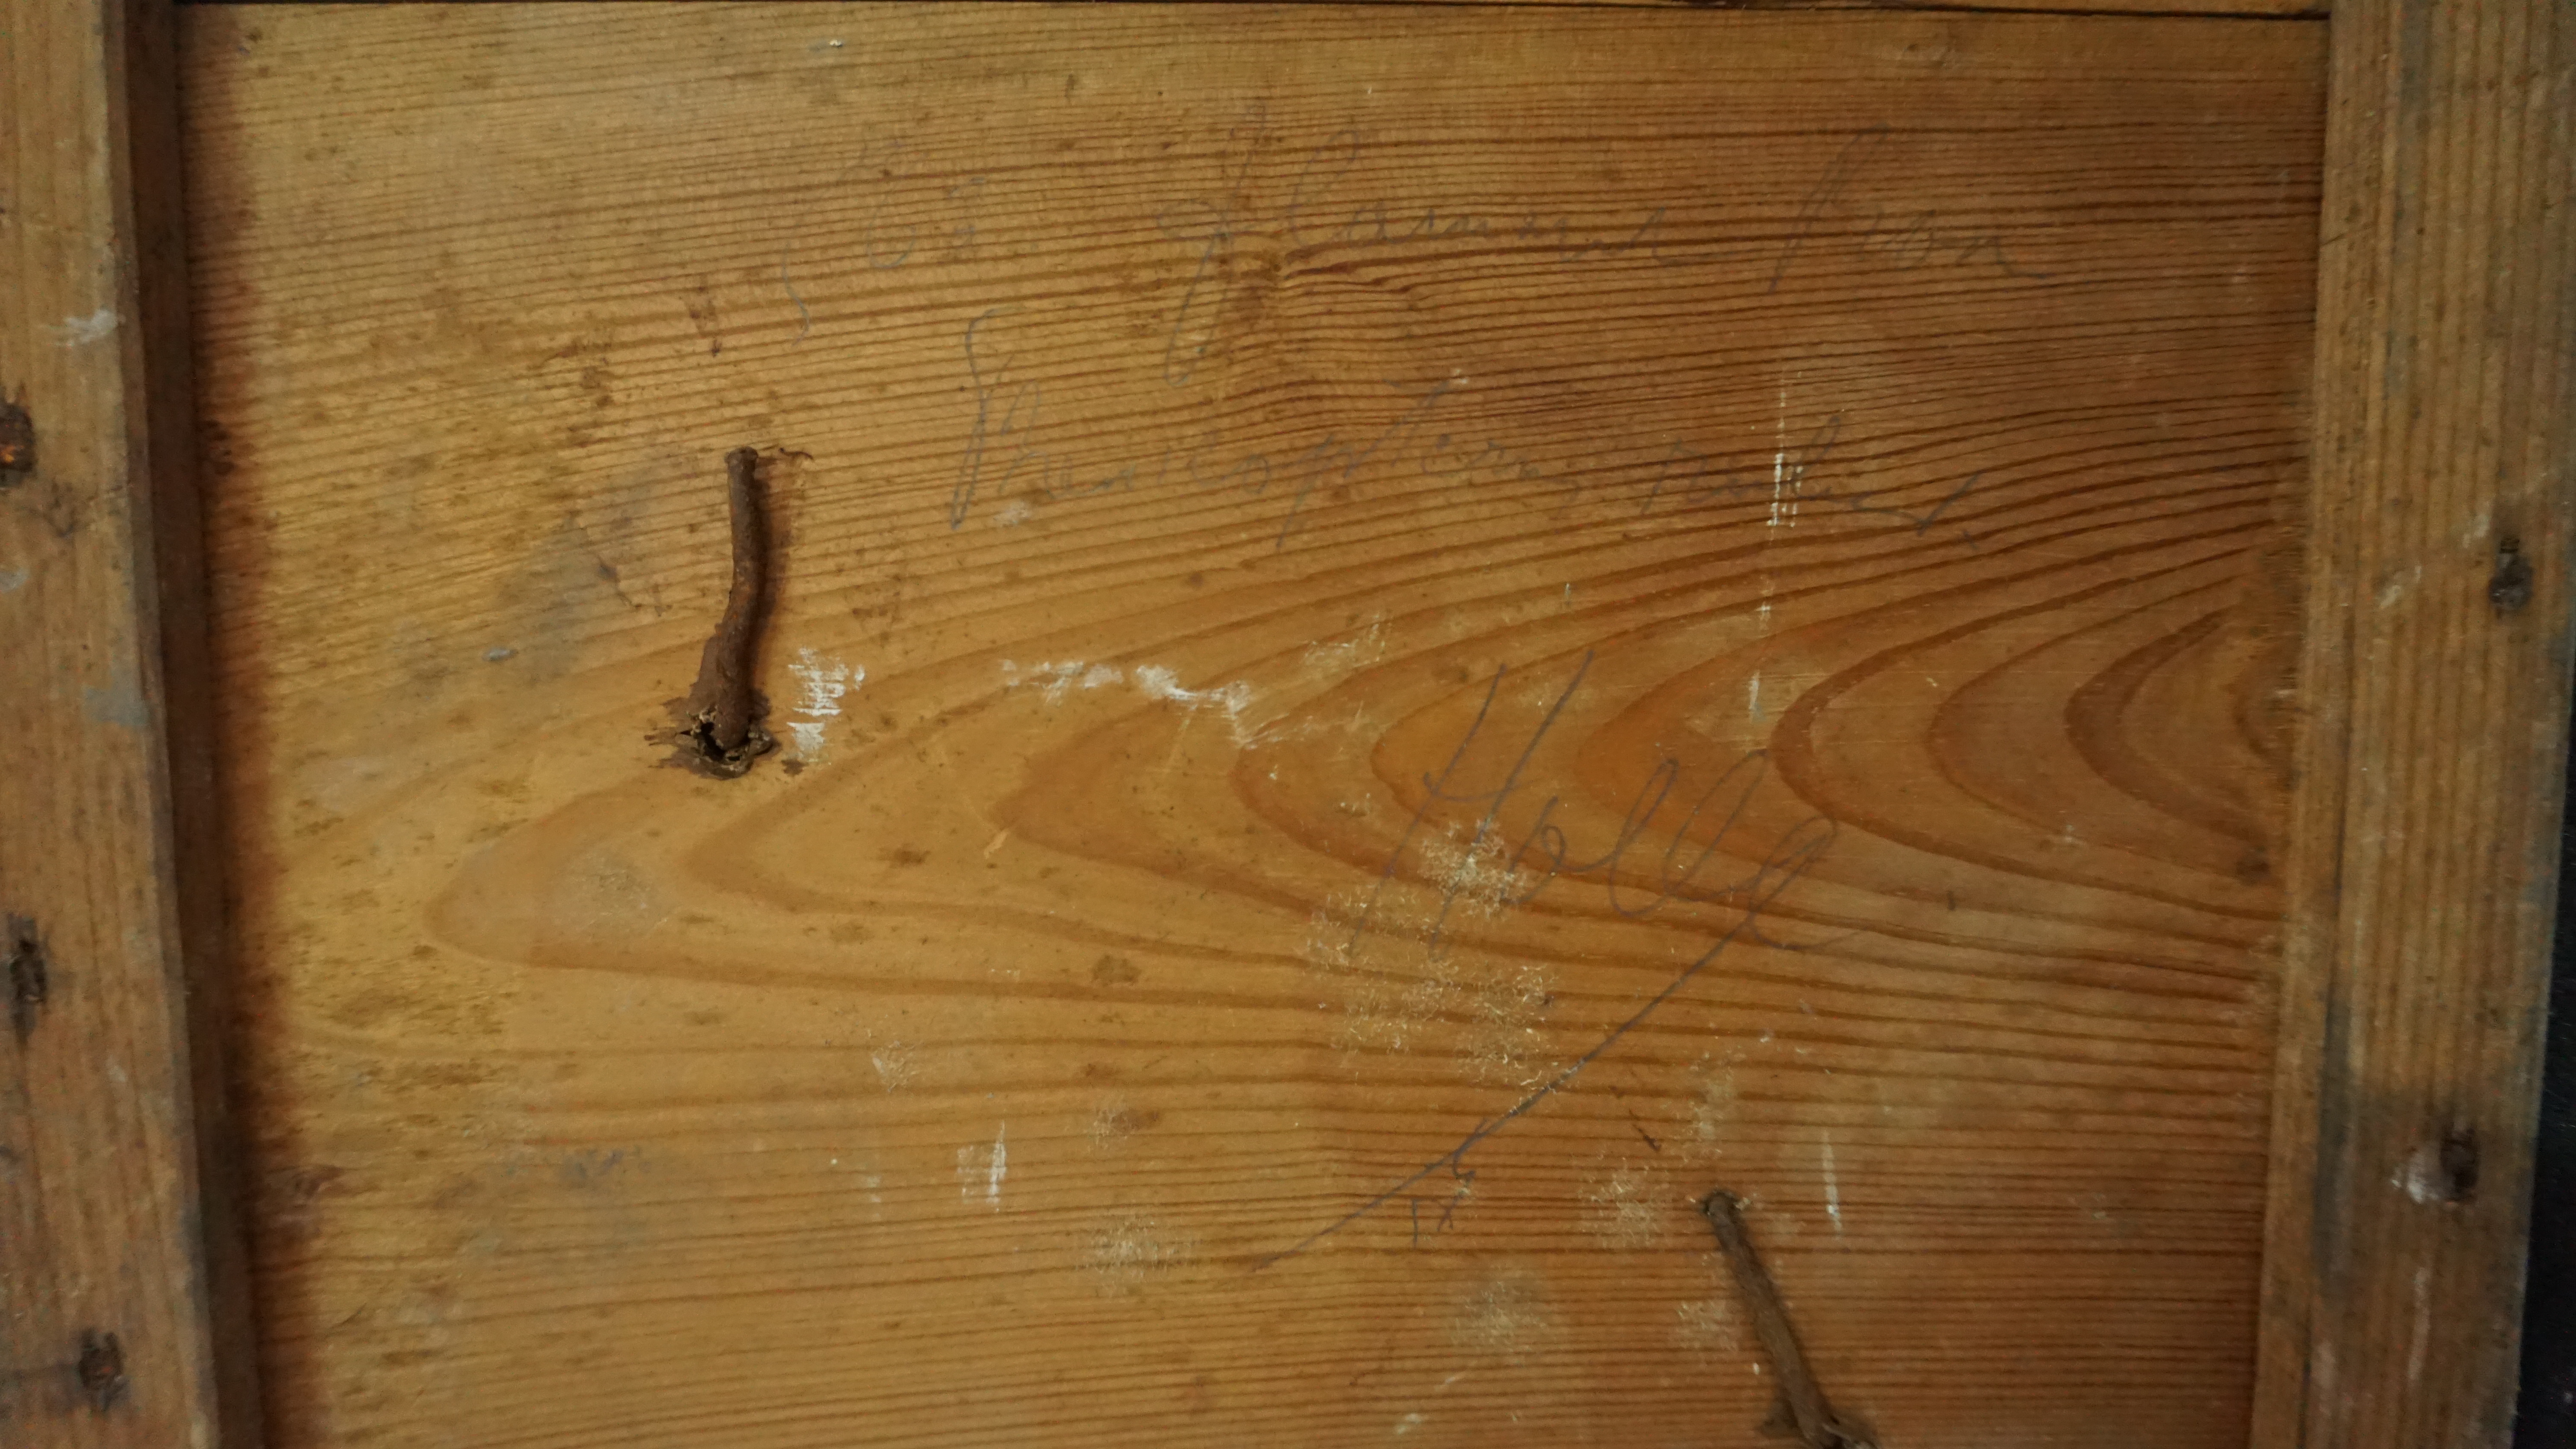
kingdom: Animalia
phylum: Chordata
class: Aves
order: Phoenicopteriformes
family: Phoenicopteridae
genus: Phoenicopterus
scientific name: Phoenicopterus roseus
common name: Greater flamingo
